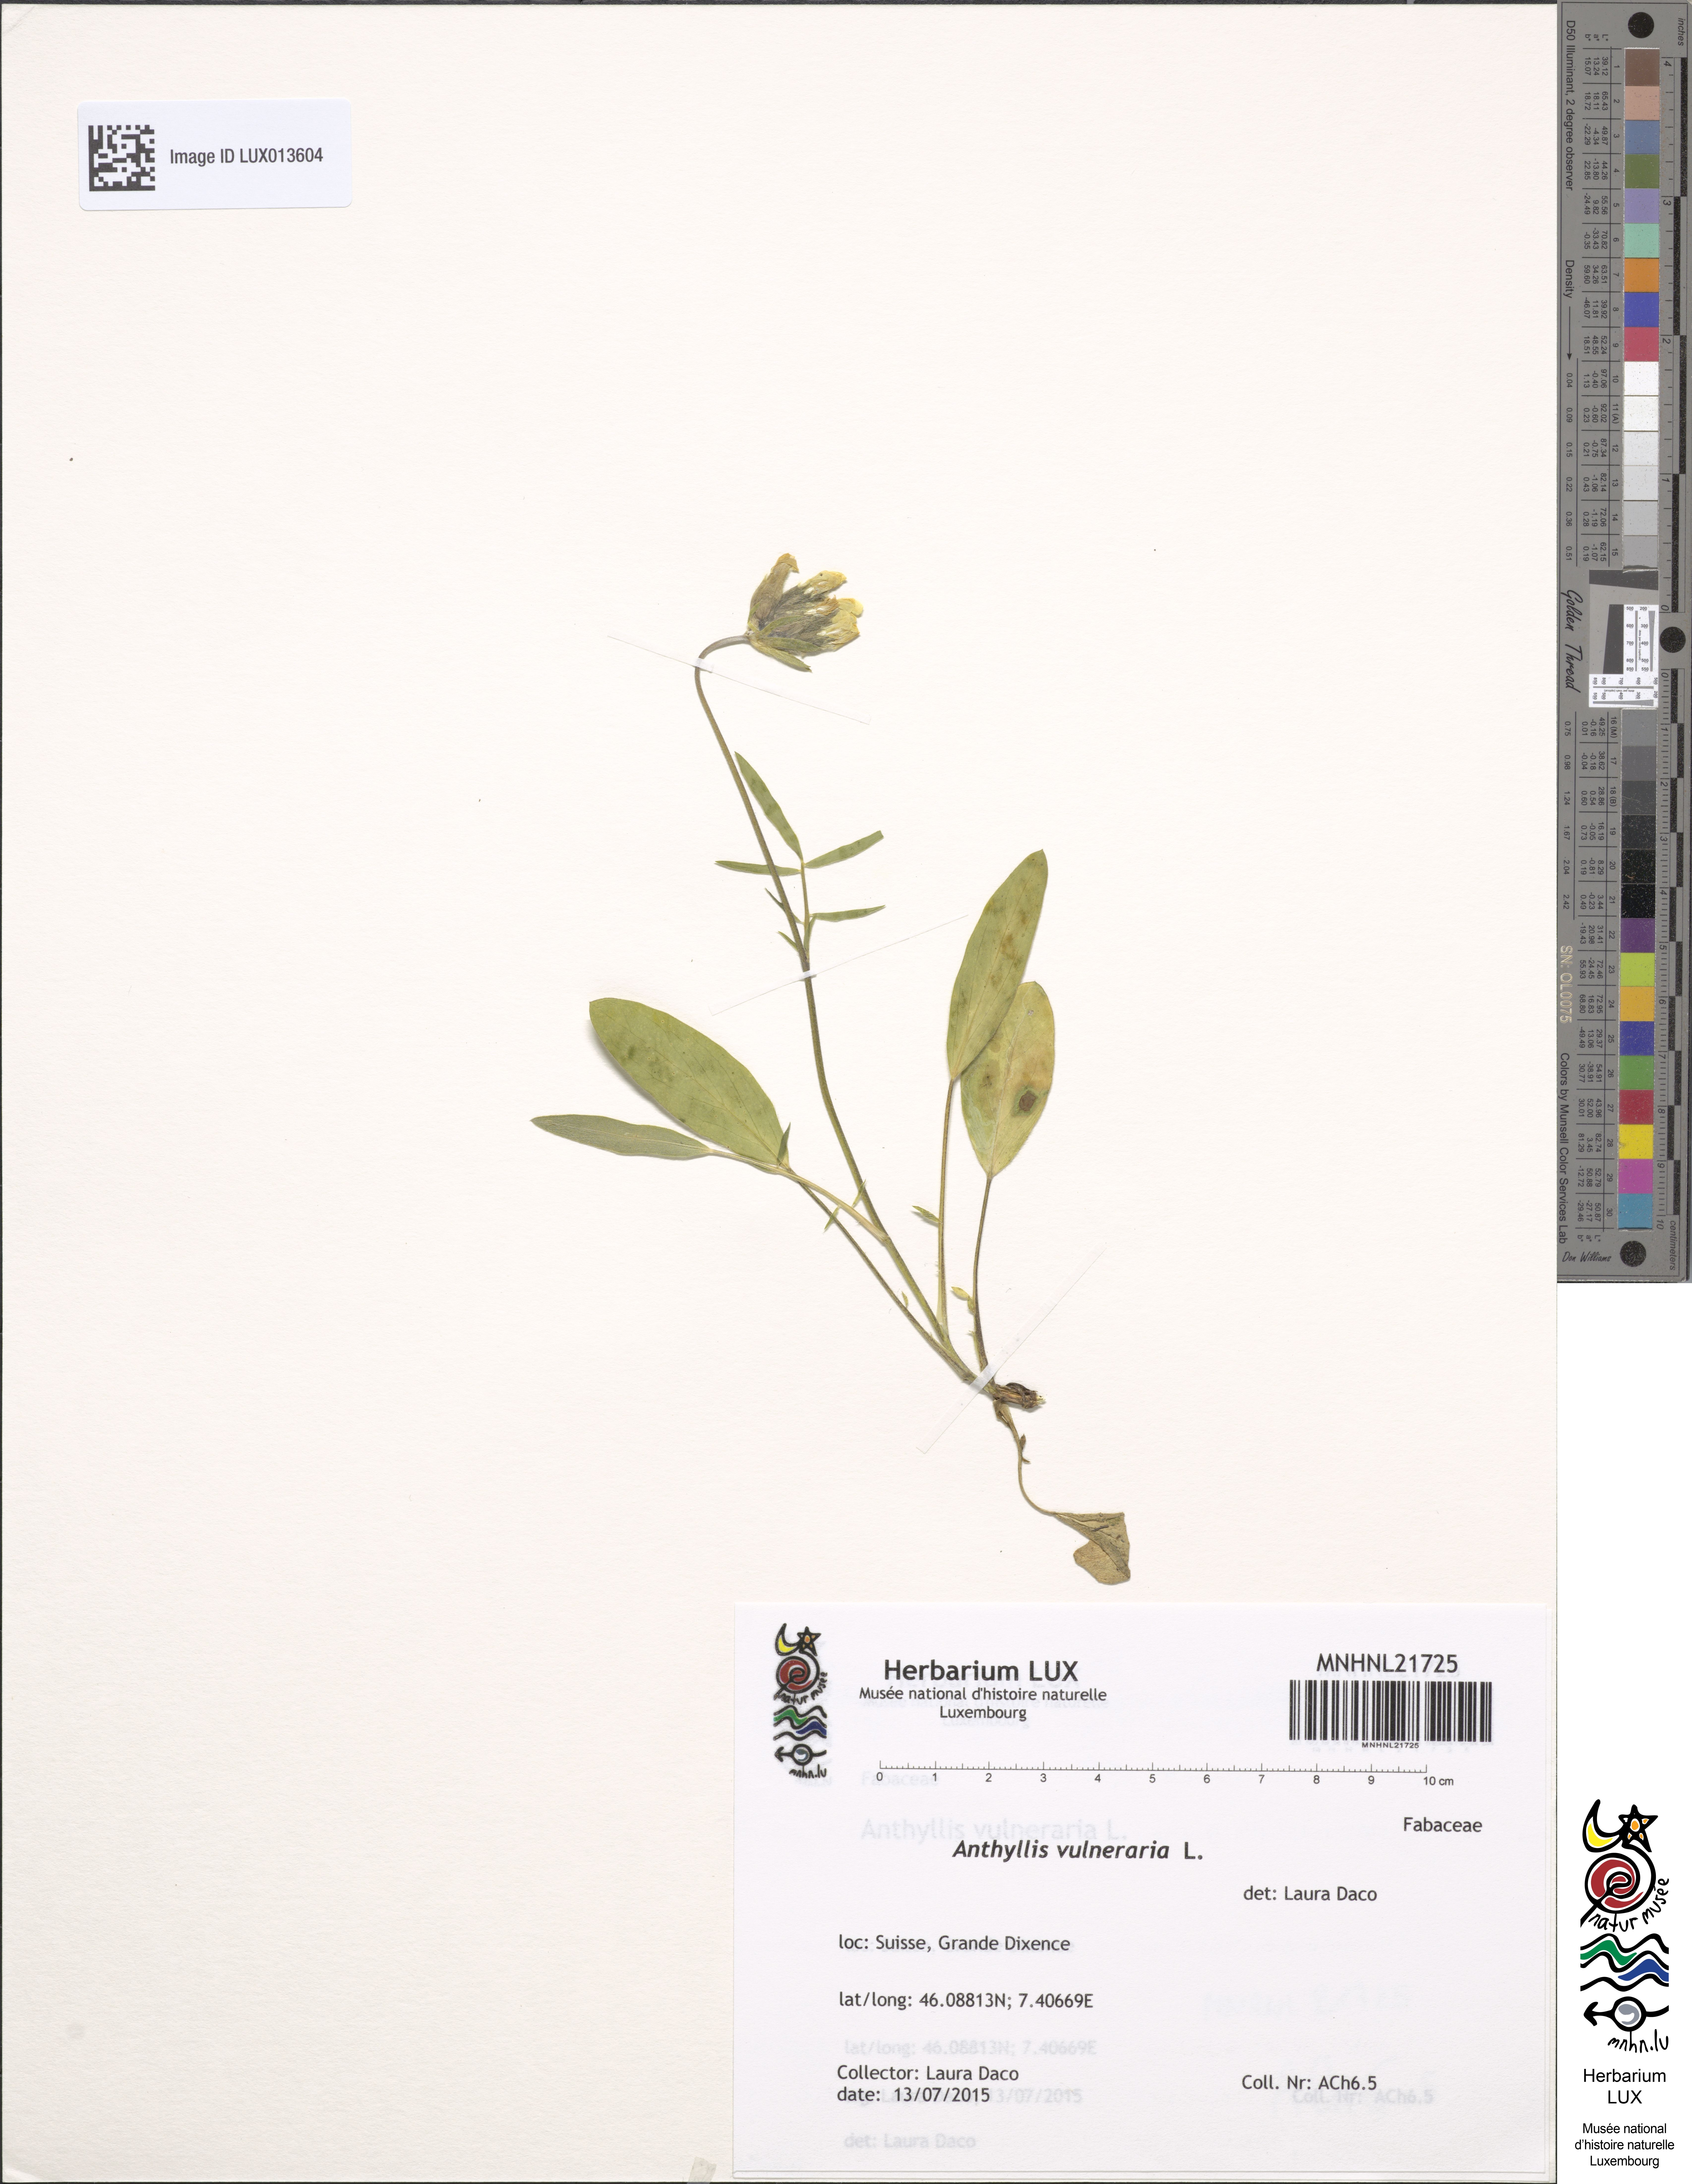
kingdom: Plantae
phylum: Tracheophyta
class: Magnoliopsida
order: Fabales
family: Fabaceae
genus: Anthyllis
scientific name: Anthyllis vulneraria
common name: Kidney vetch
